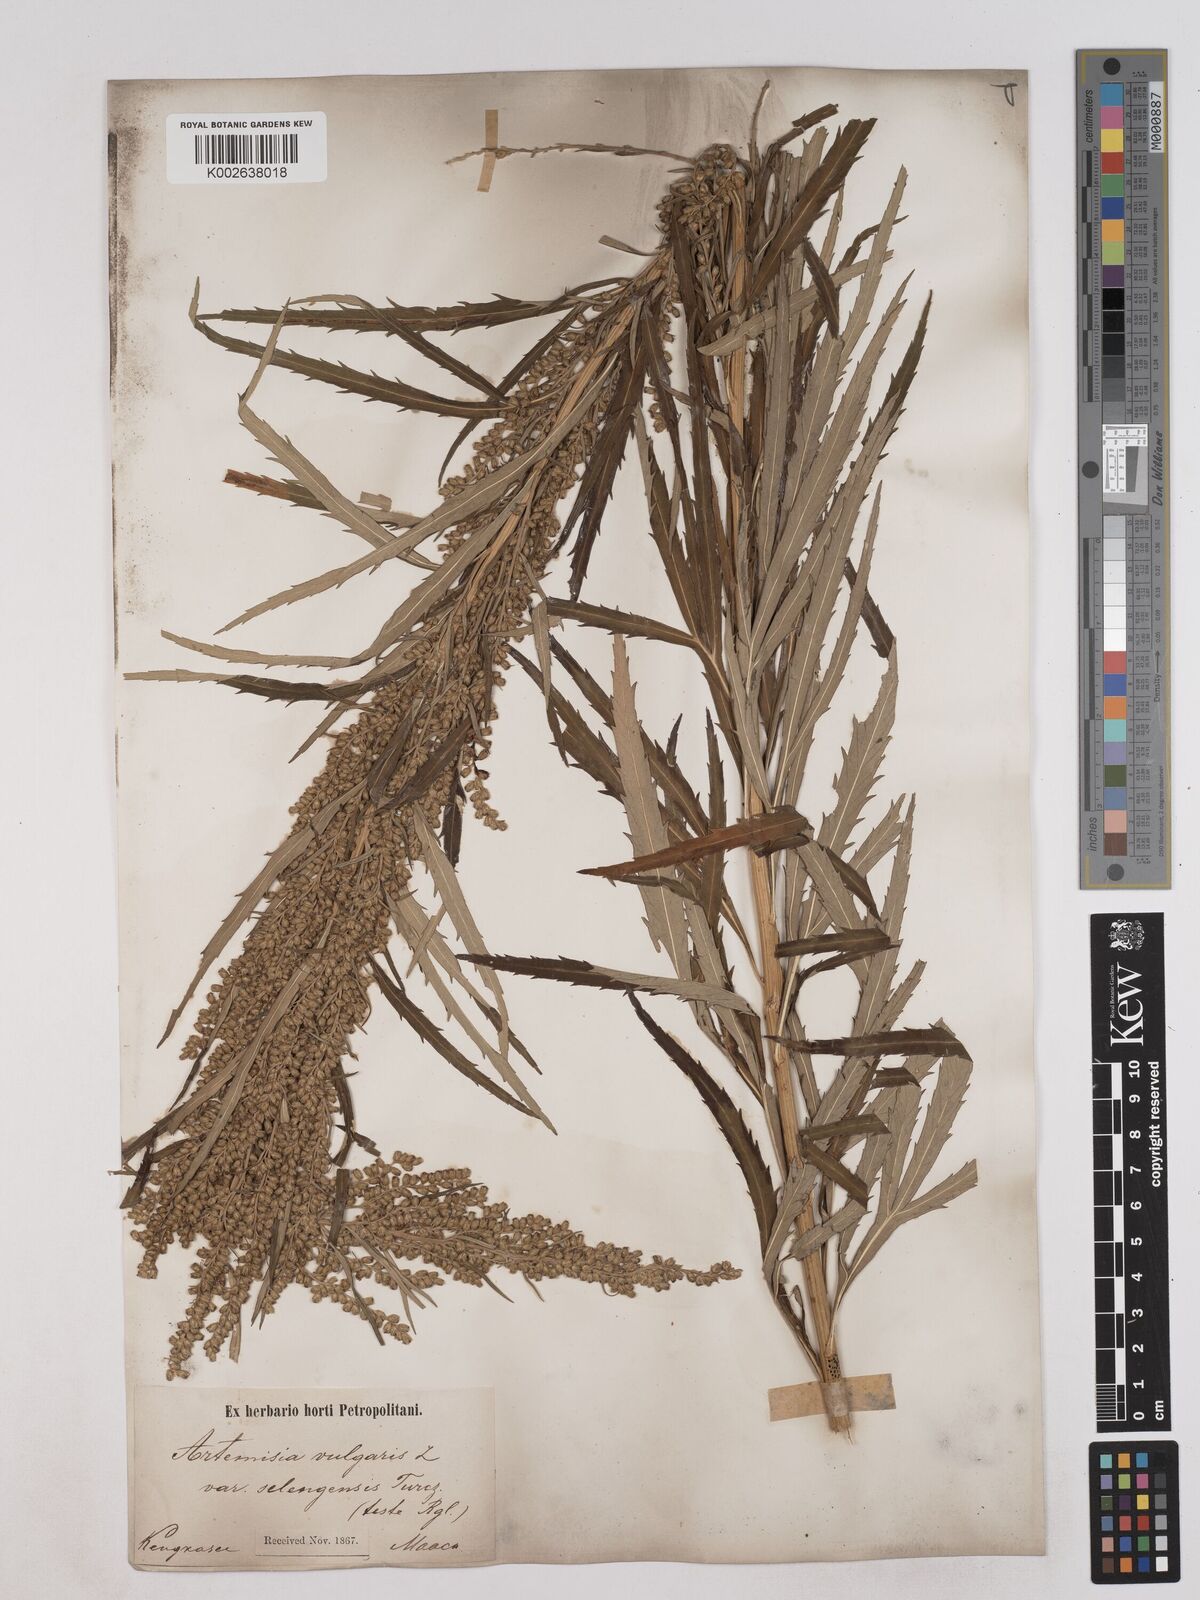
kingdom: Plantae
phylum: Tracheophyta
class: Magnoliopsida
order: Asterales
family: Asteraceae
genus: Artemisia
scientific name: Artemisia selengensis
